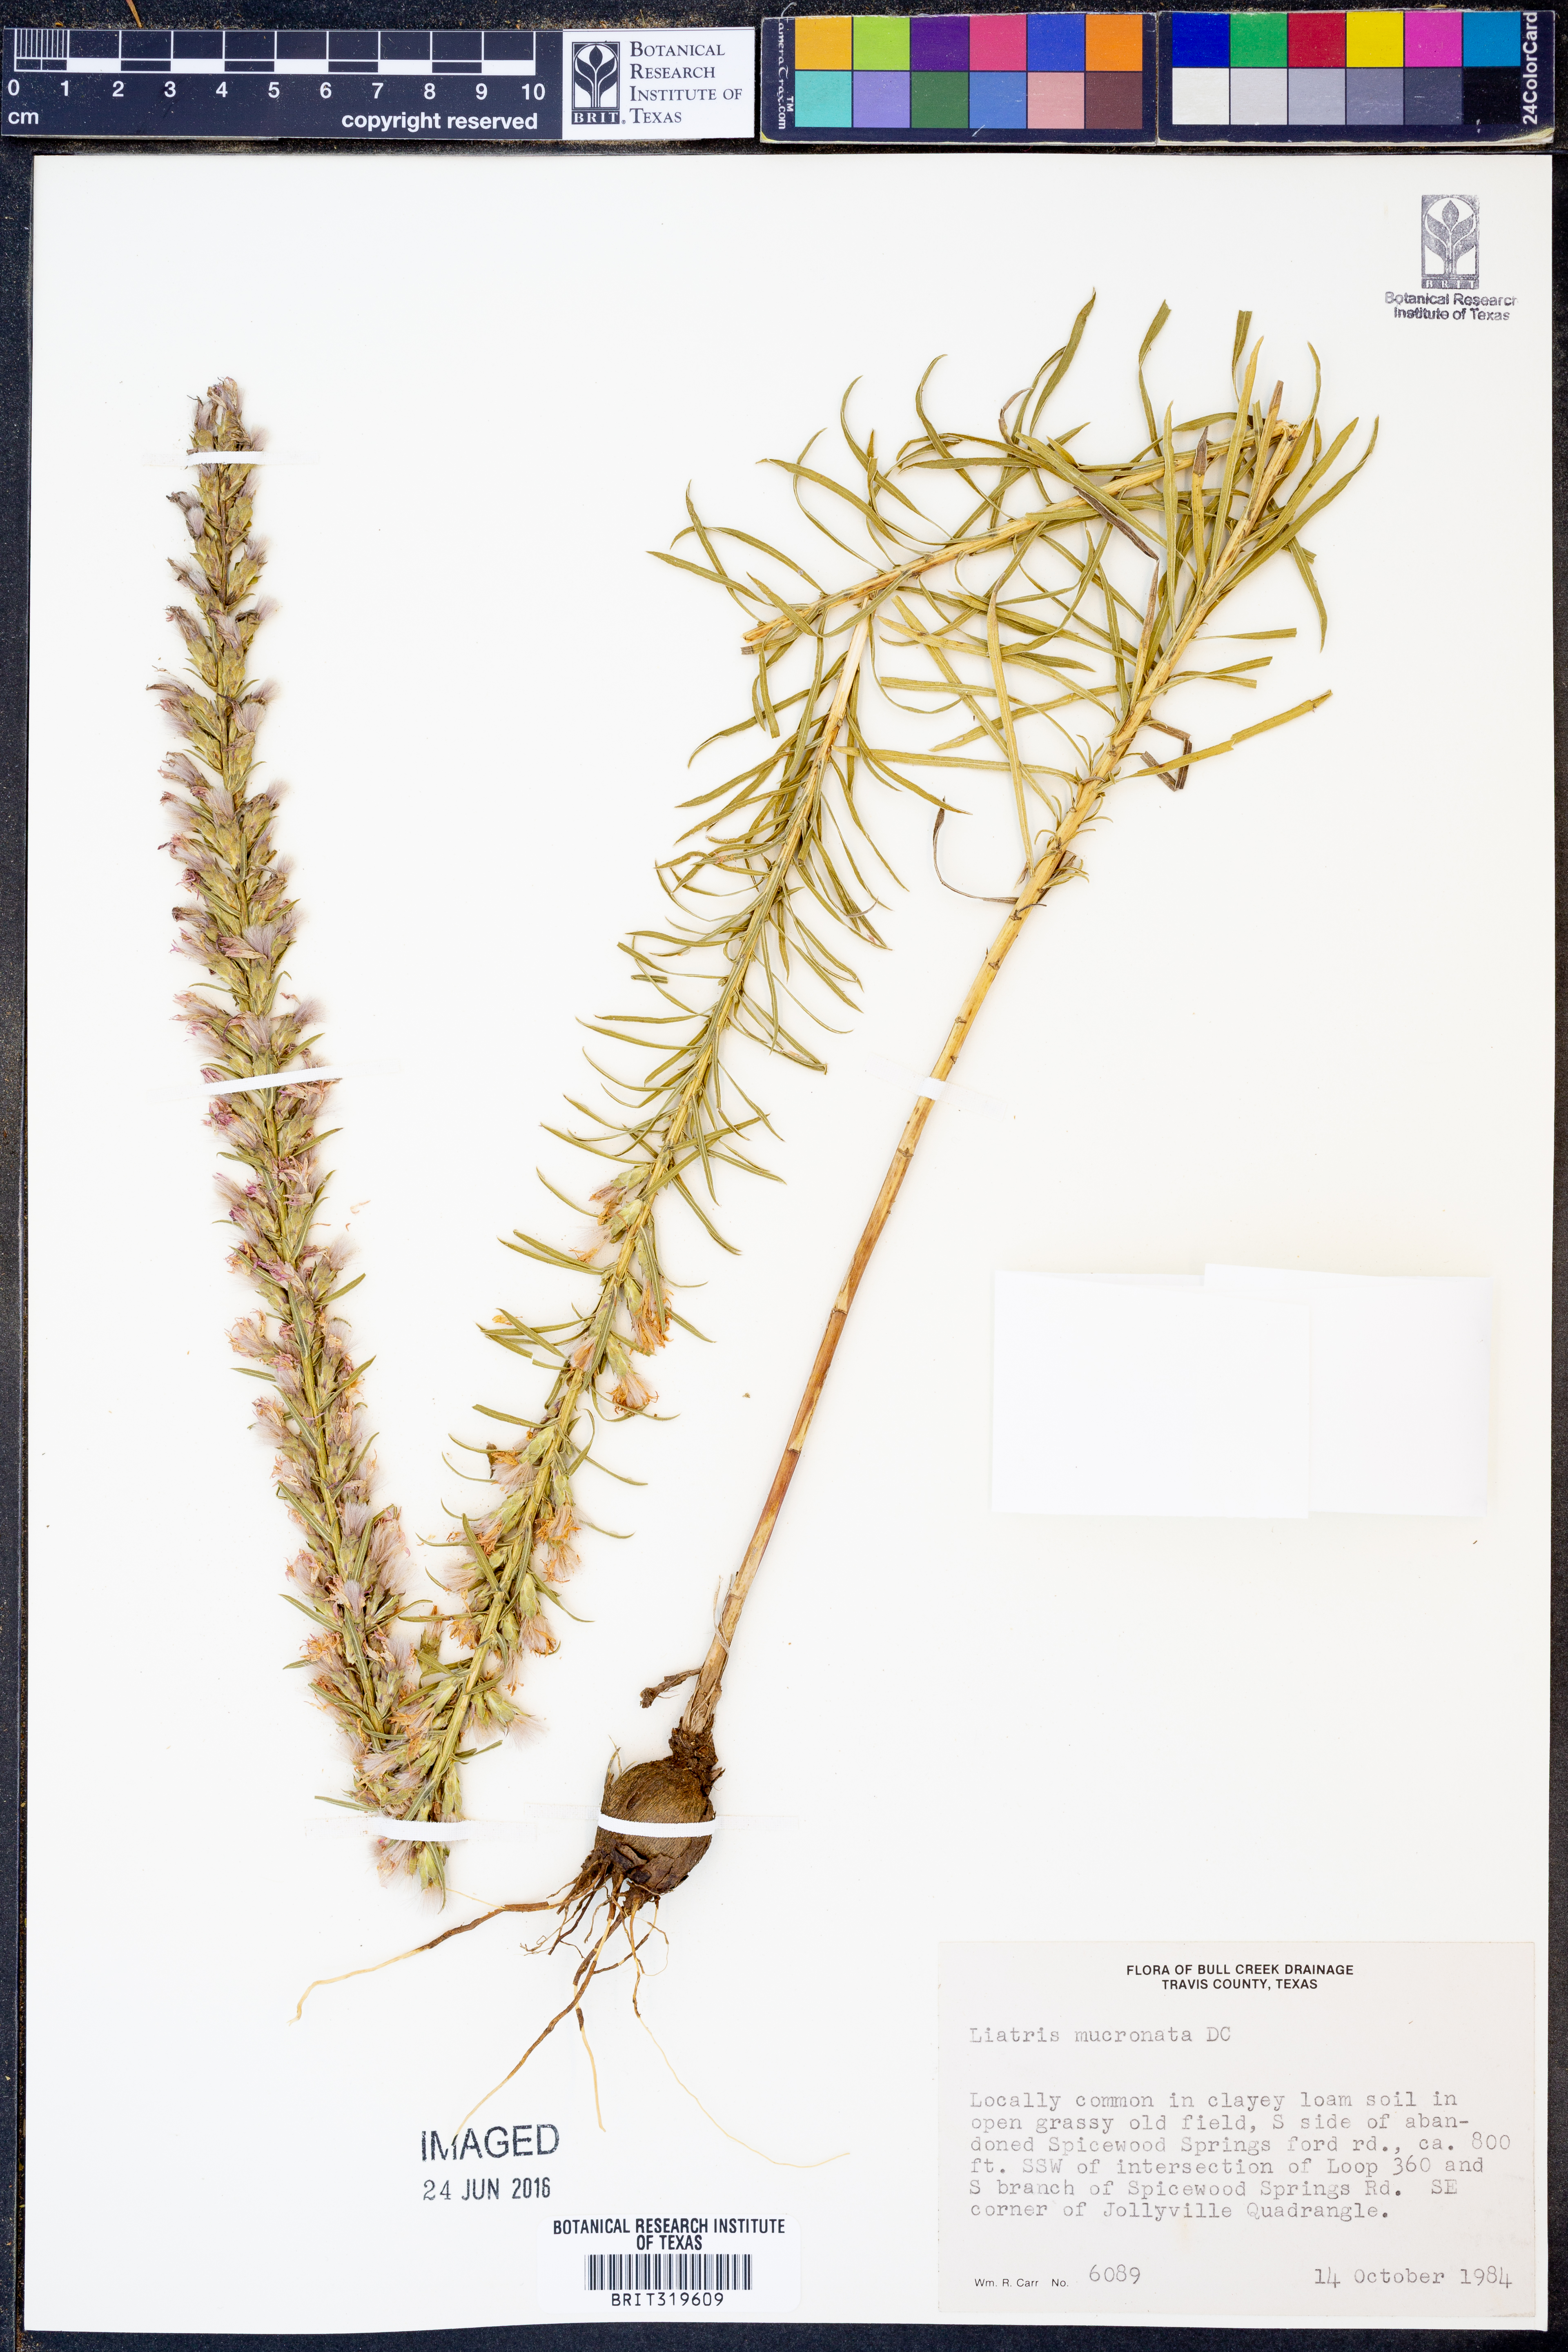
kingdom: Plantae
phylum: Tracheophyta
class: Magnoliopsida
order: Asterales
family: Asteraceae
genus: Liatris
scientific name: Liatris mucronata
